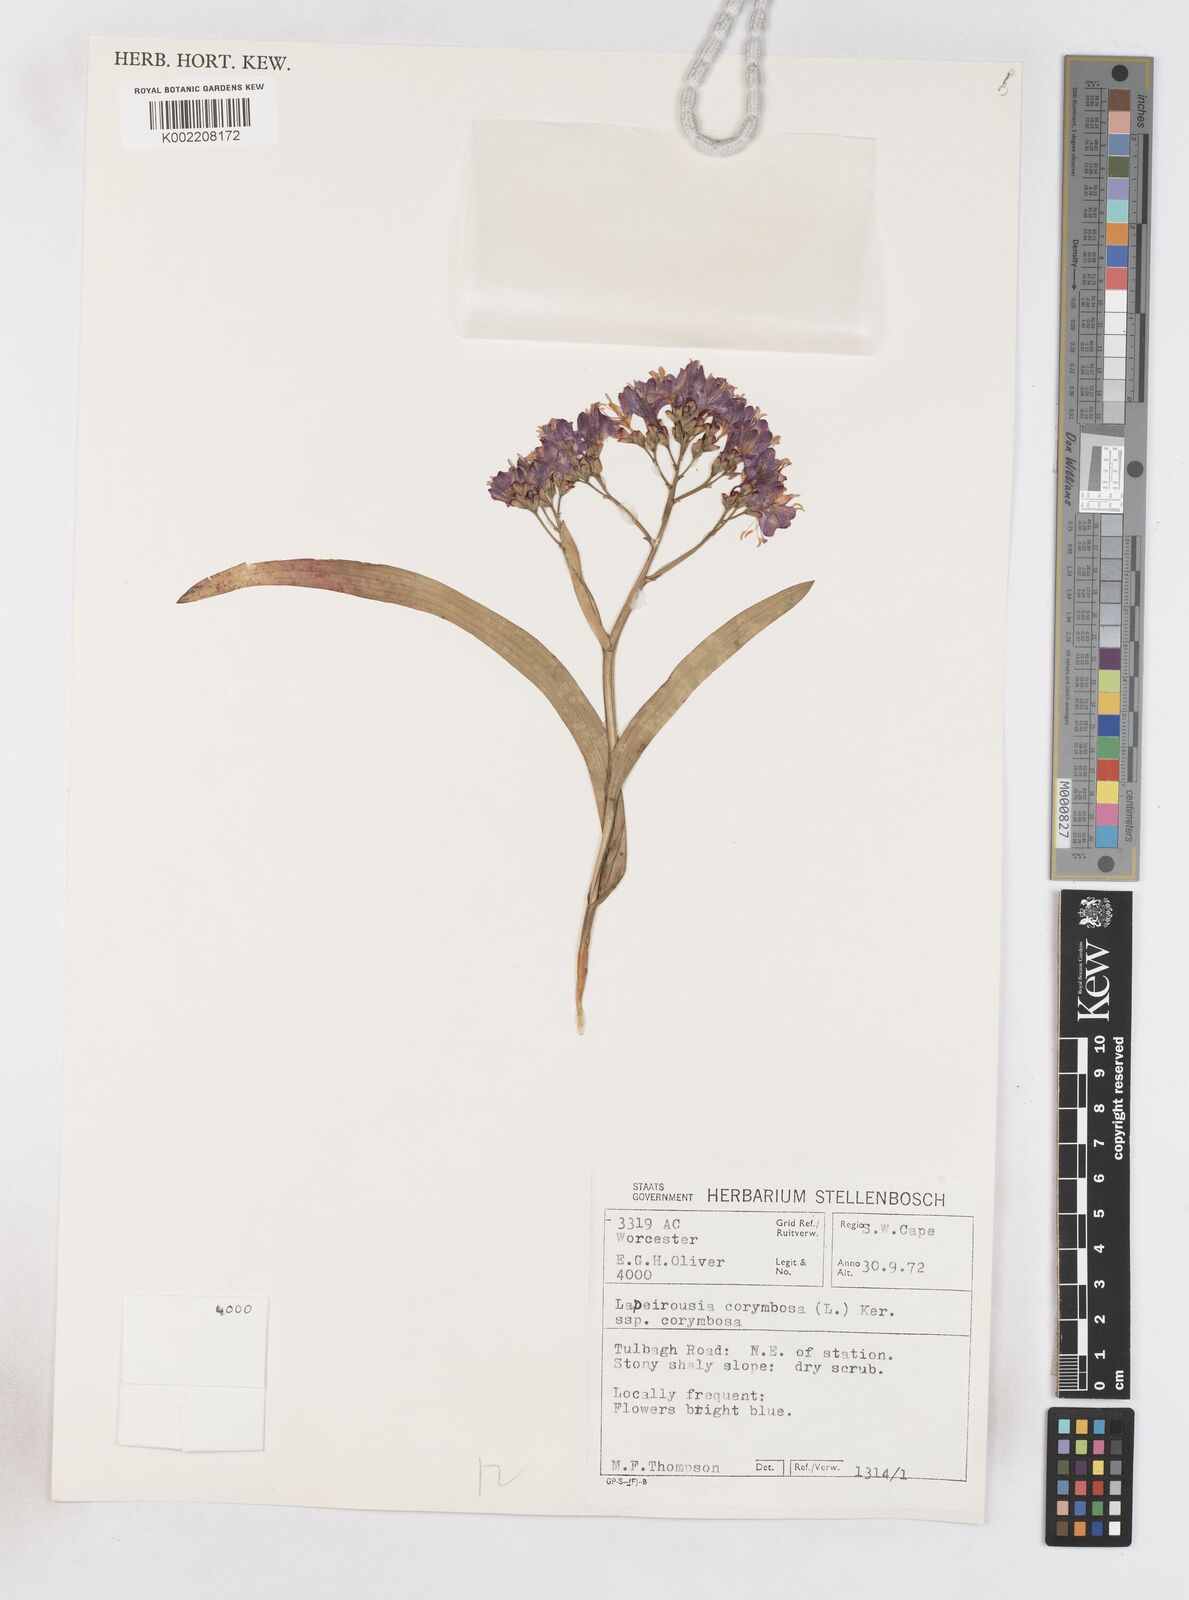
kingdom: Plantae
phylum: Tracheophyta
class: Liliopsida
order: Asparagales
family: Iridaceae
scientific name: Iridaceae
